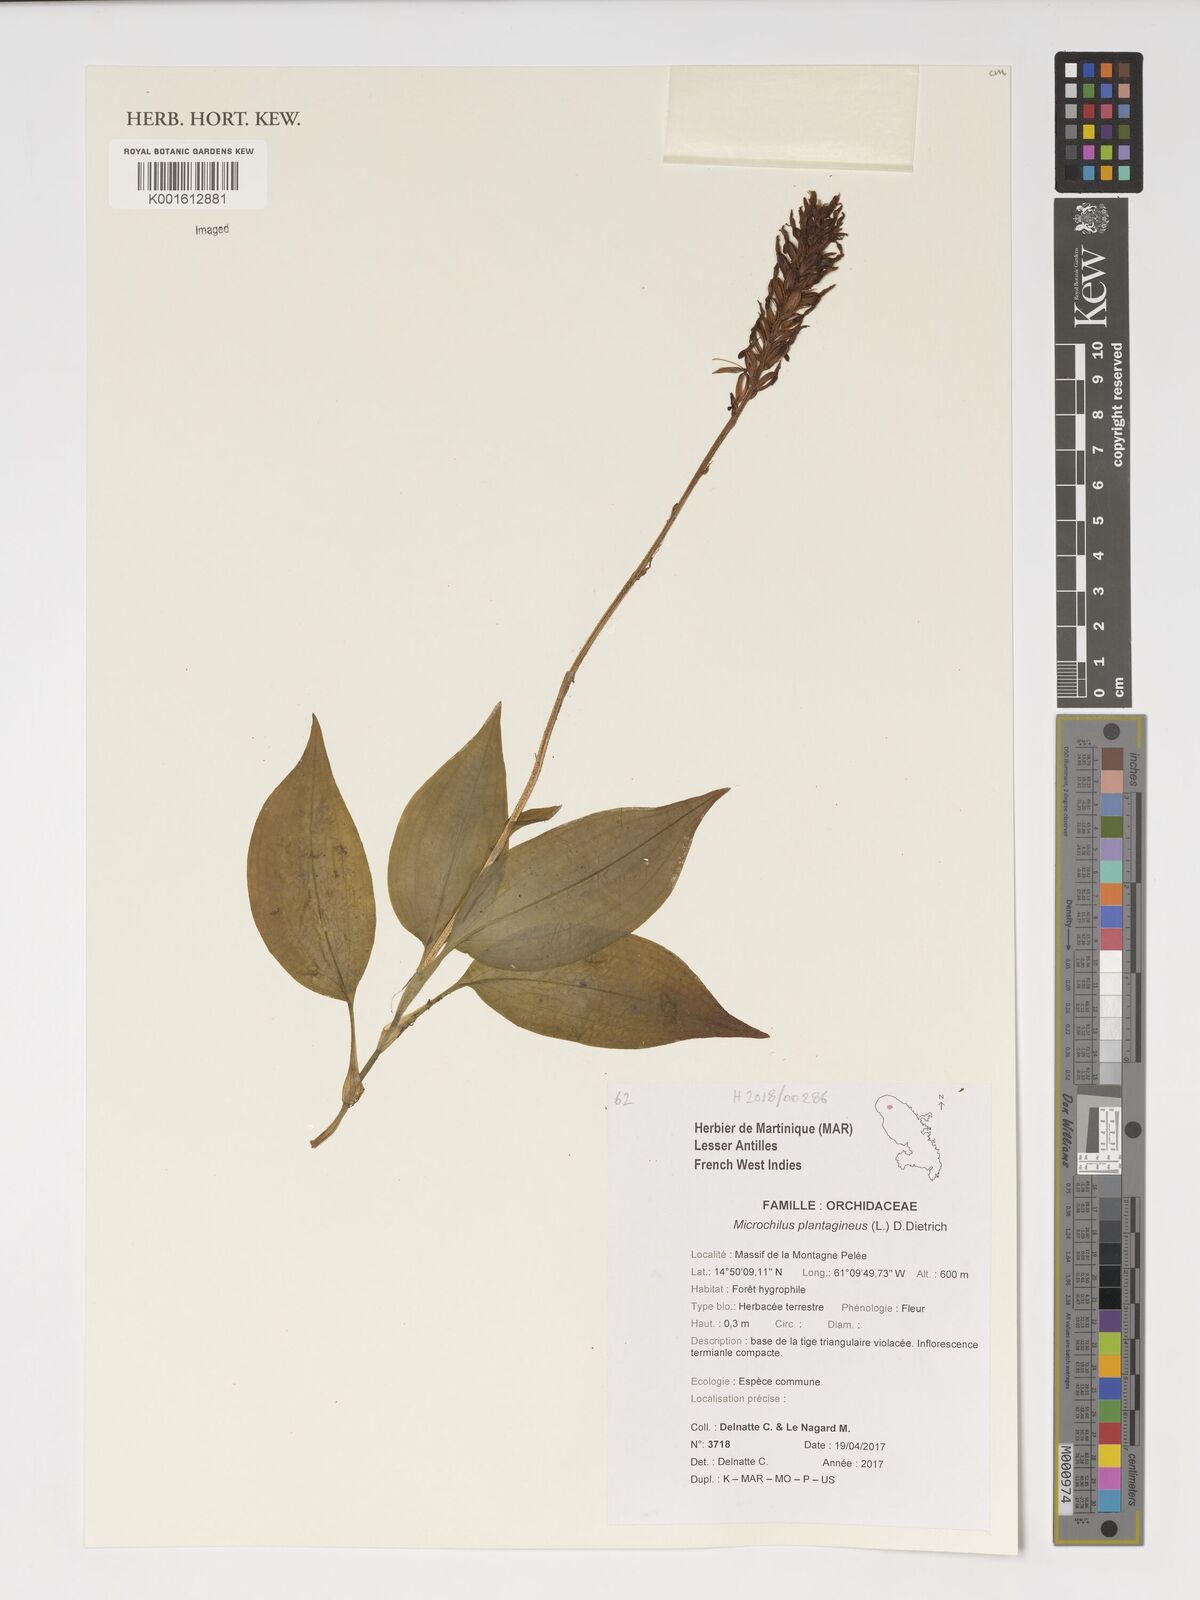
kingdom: Plantae
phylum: Tracheophyta
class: Liliopsida
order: Asparagales
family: Orchidaceae
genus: Microchilus
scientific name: Microchilus plantagineus
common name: Caribbean false helmetorchid
